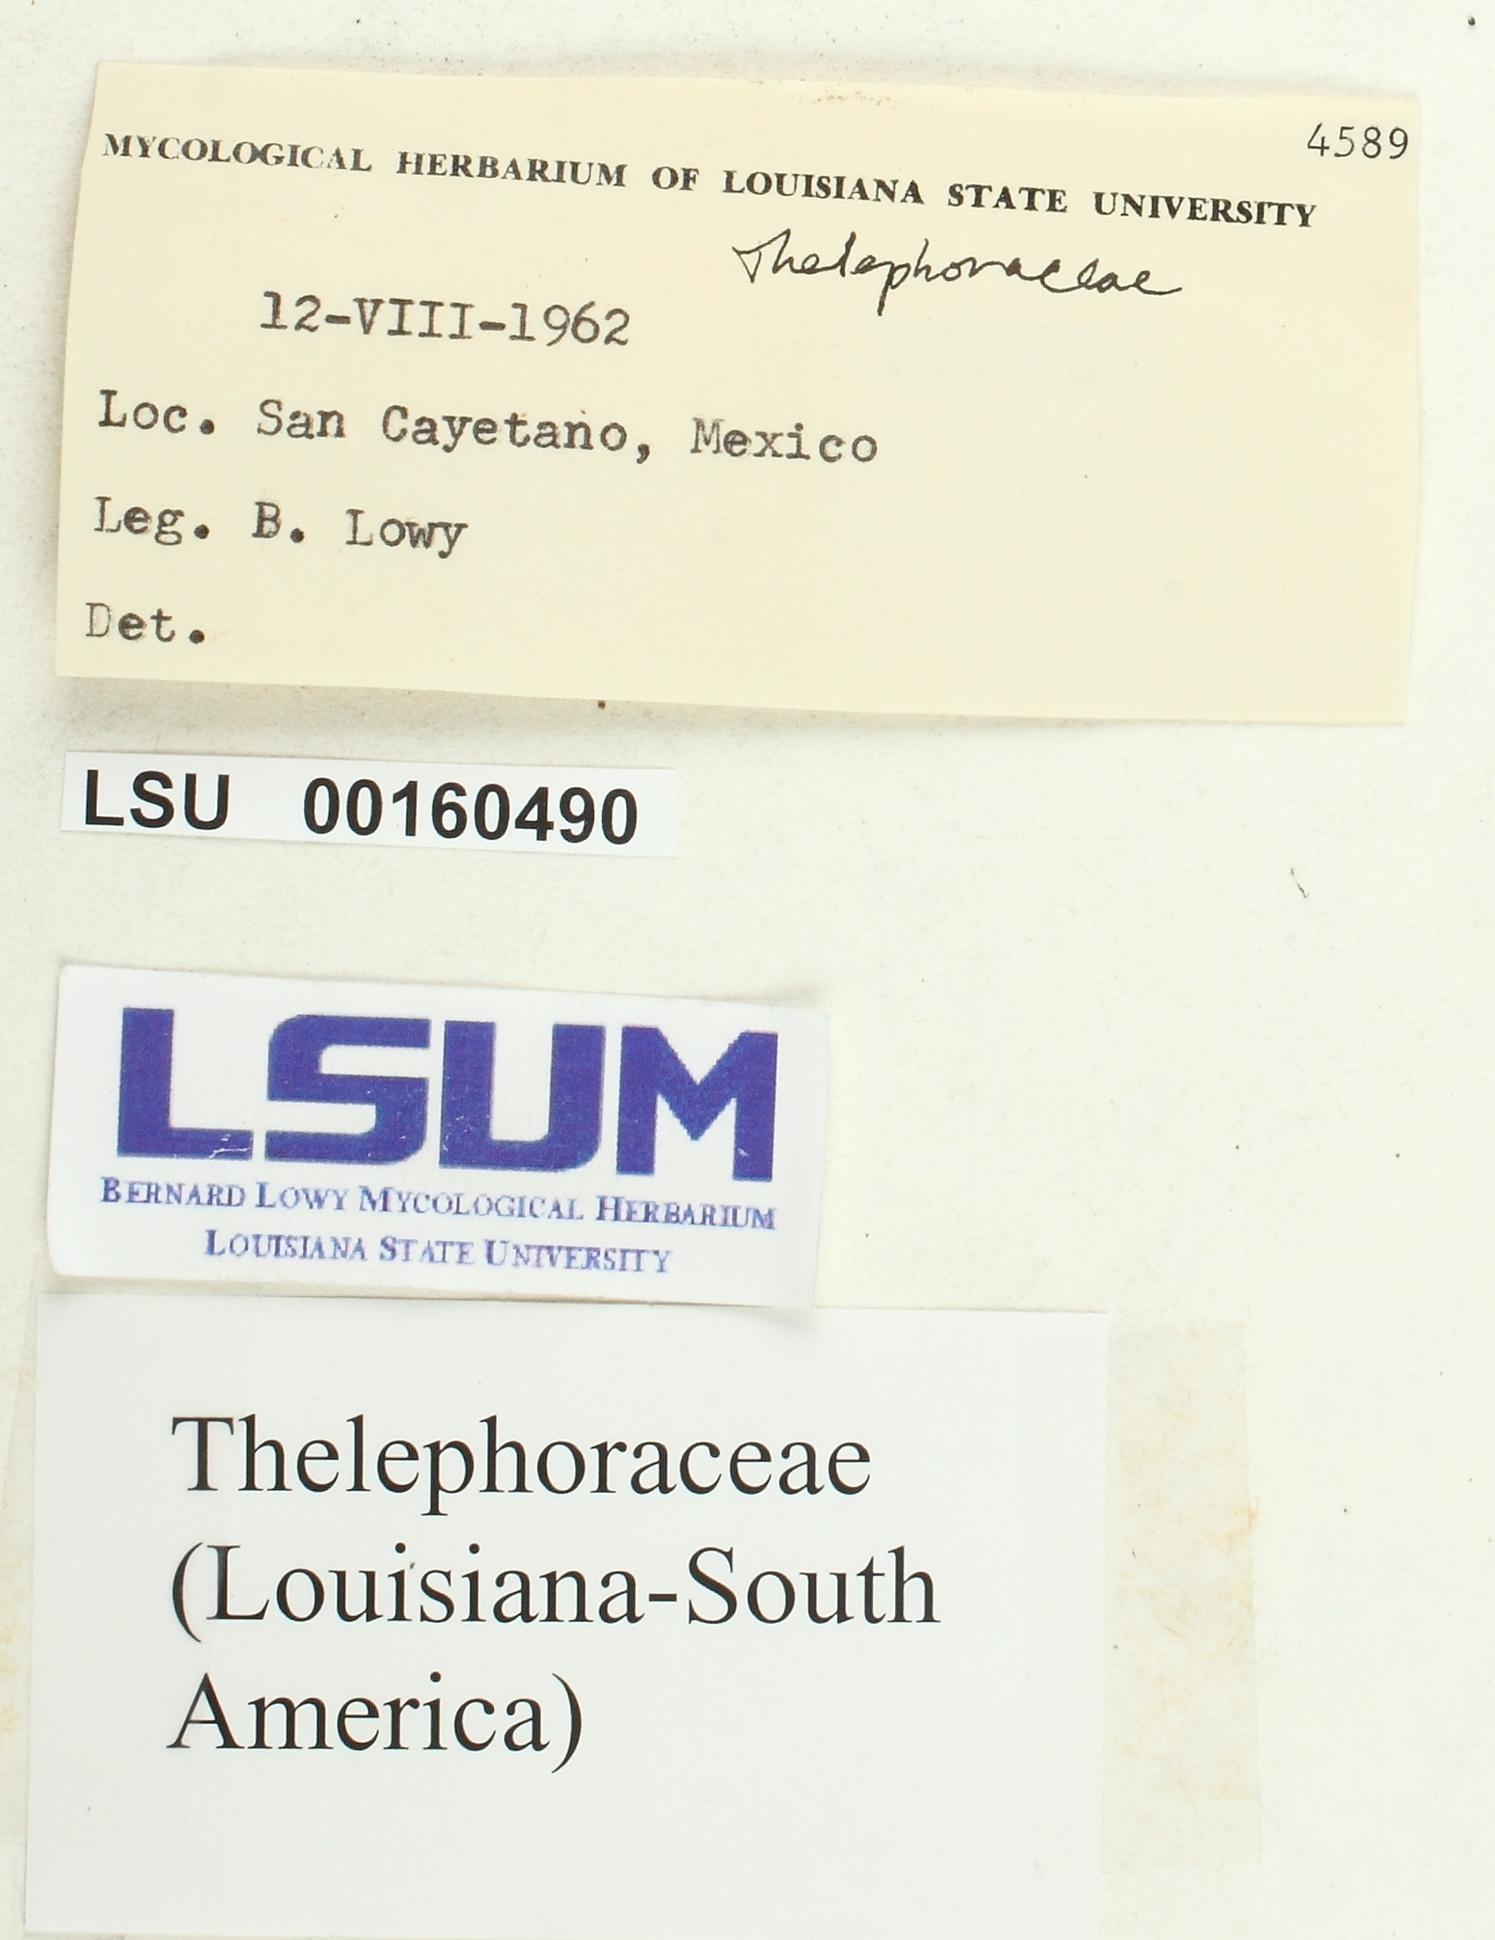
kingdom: Fungi
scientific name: Fungi
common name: Fungi
